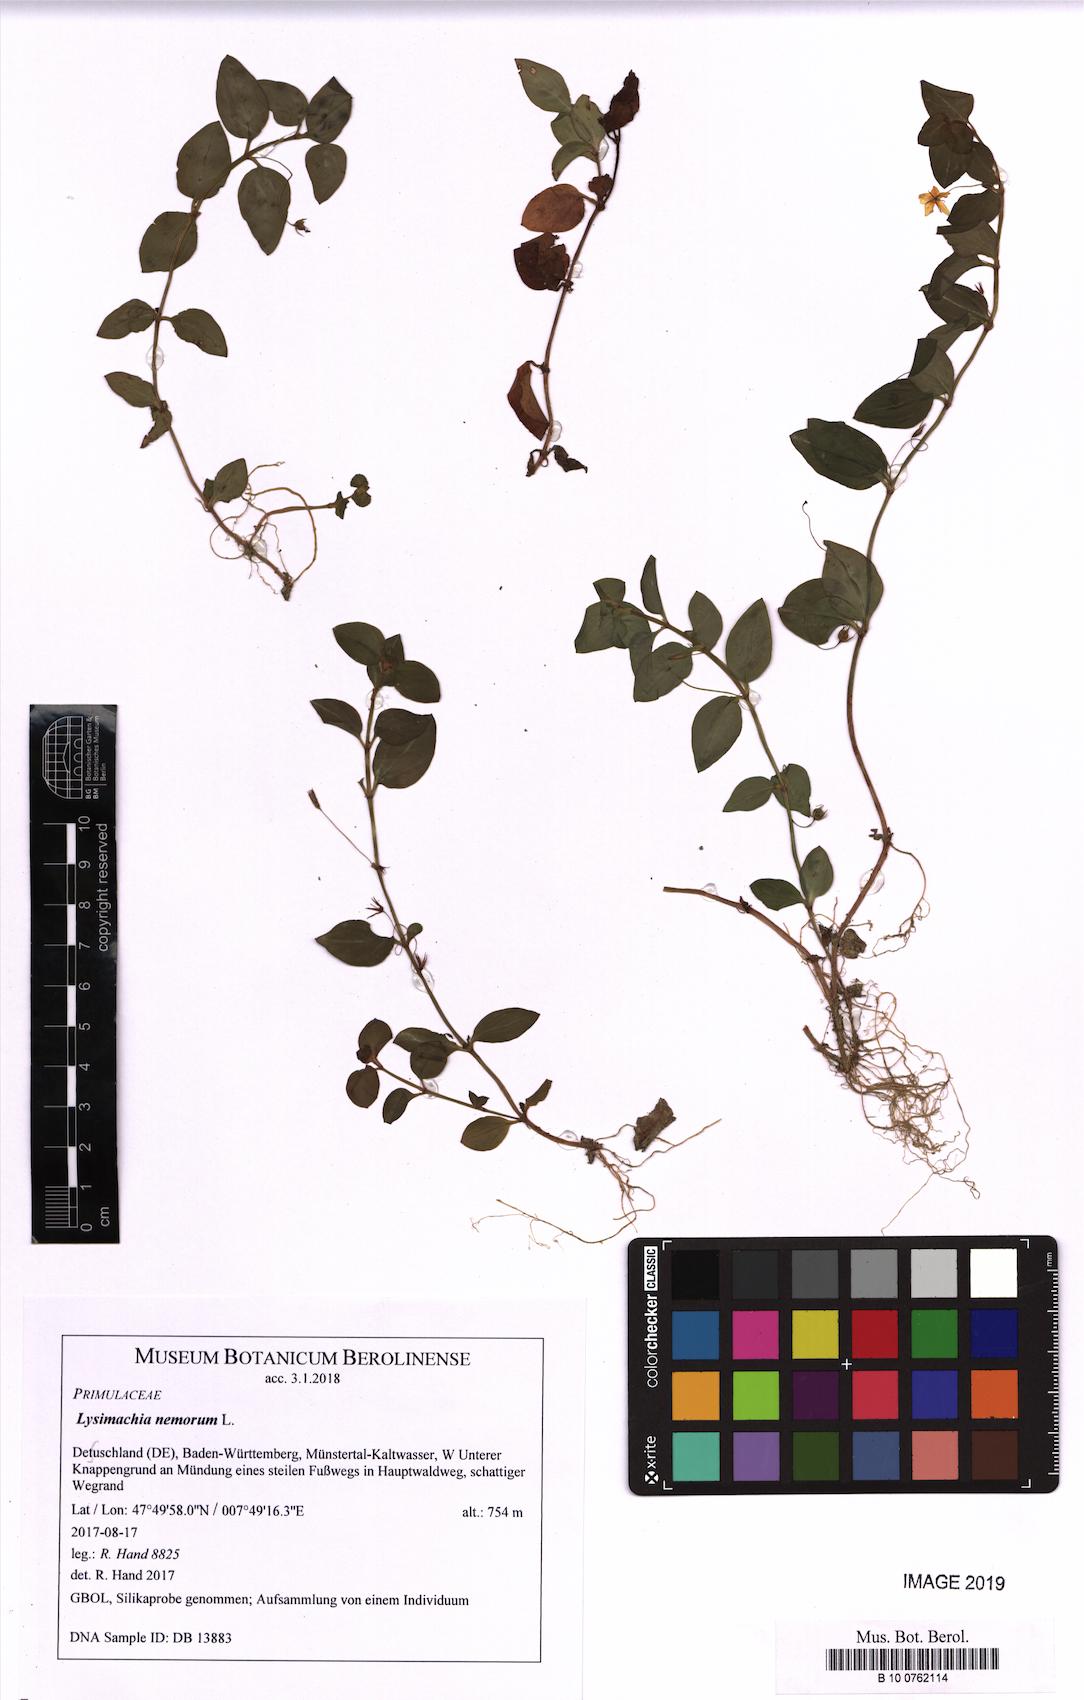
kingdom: Plantae
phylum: Tracheophyta
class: Magnoliopsida
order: Ericales
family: Primulaceae
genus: Lysimachia
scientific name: Lysimachia nemorum
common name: Yellow pimpernel
